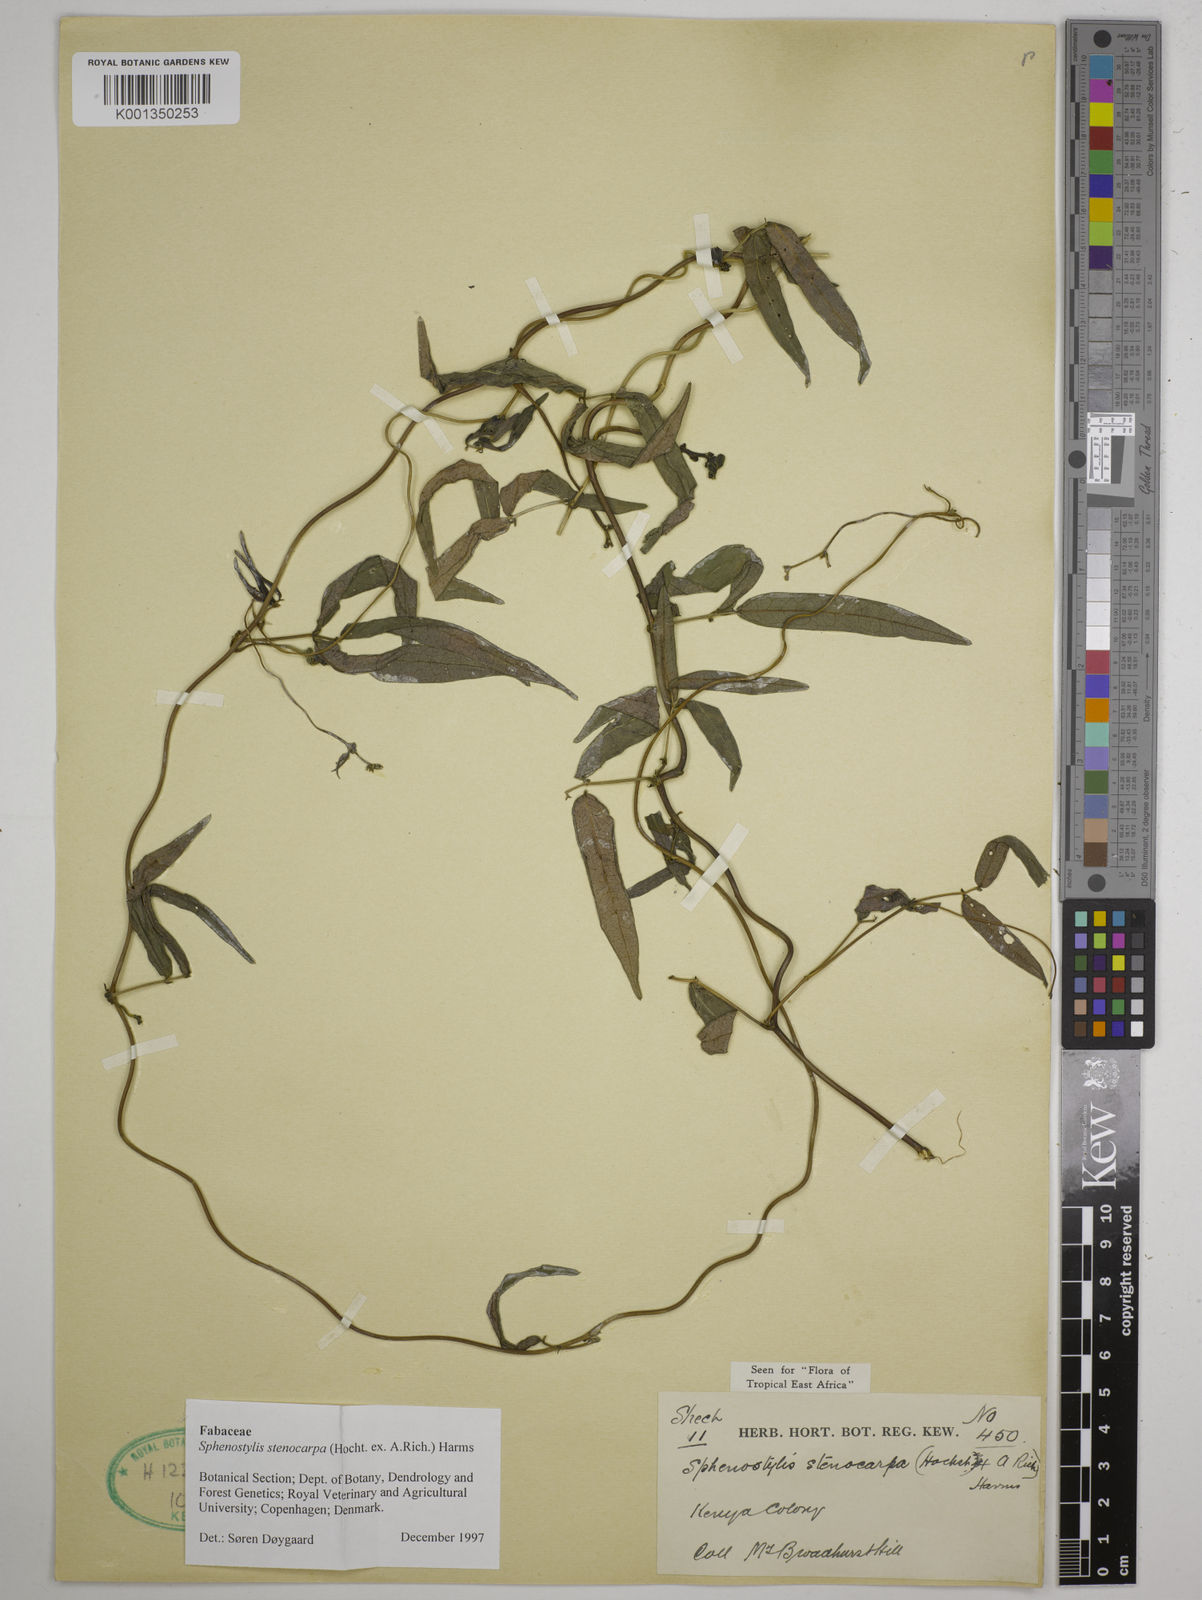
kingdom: Plantae
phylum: Tracheophyta
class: Magnoliopsida
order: Fabales
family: Fabaceae
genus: Sphenostylis
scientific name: Sphenostylis stenocarpa
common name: Yam-pea
